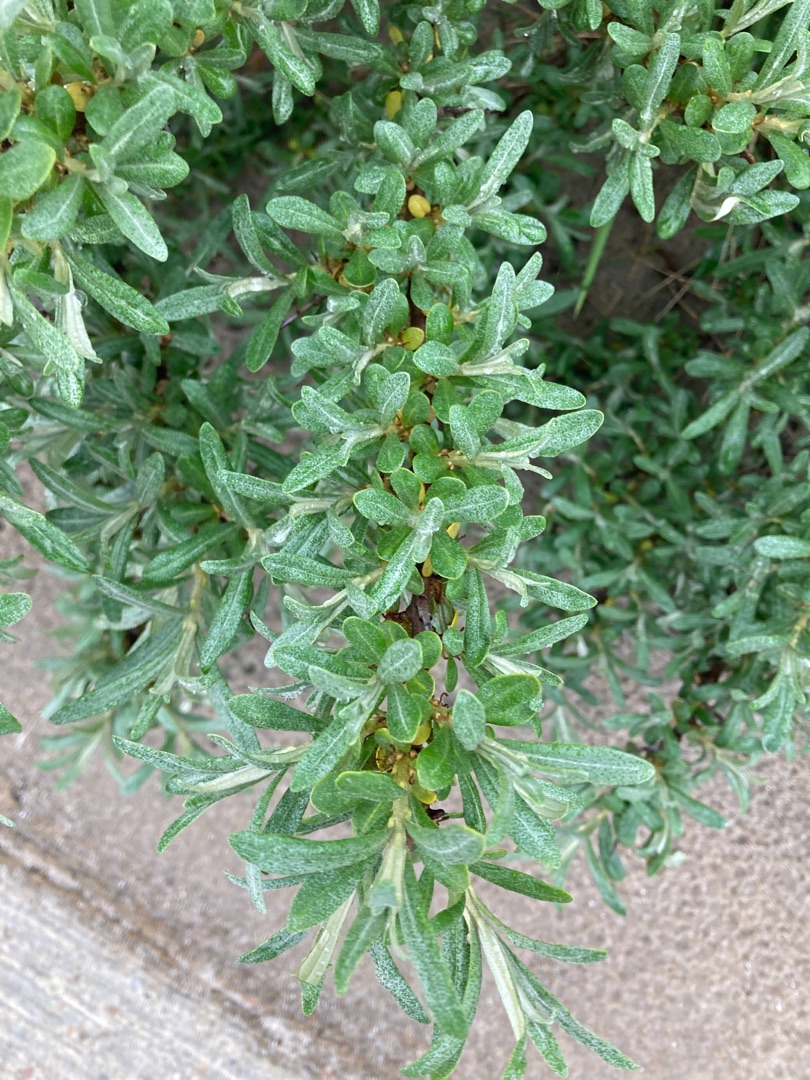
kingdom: Plantae
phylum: Tracheophyta
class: Magnoliopsida
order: Rosales
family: Elaeagnaceae
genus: Hippophae
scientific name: Hippophae rhamnoides
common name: Havtorn
